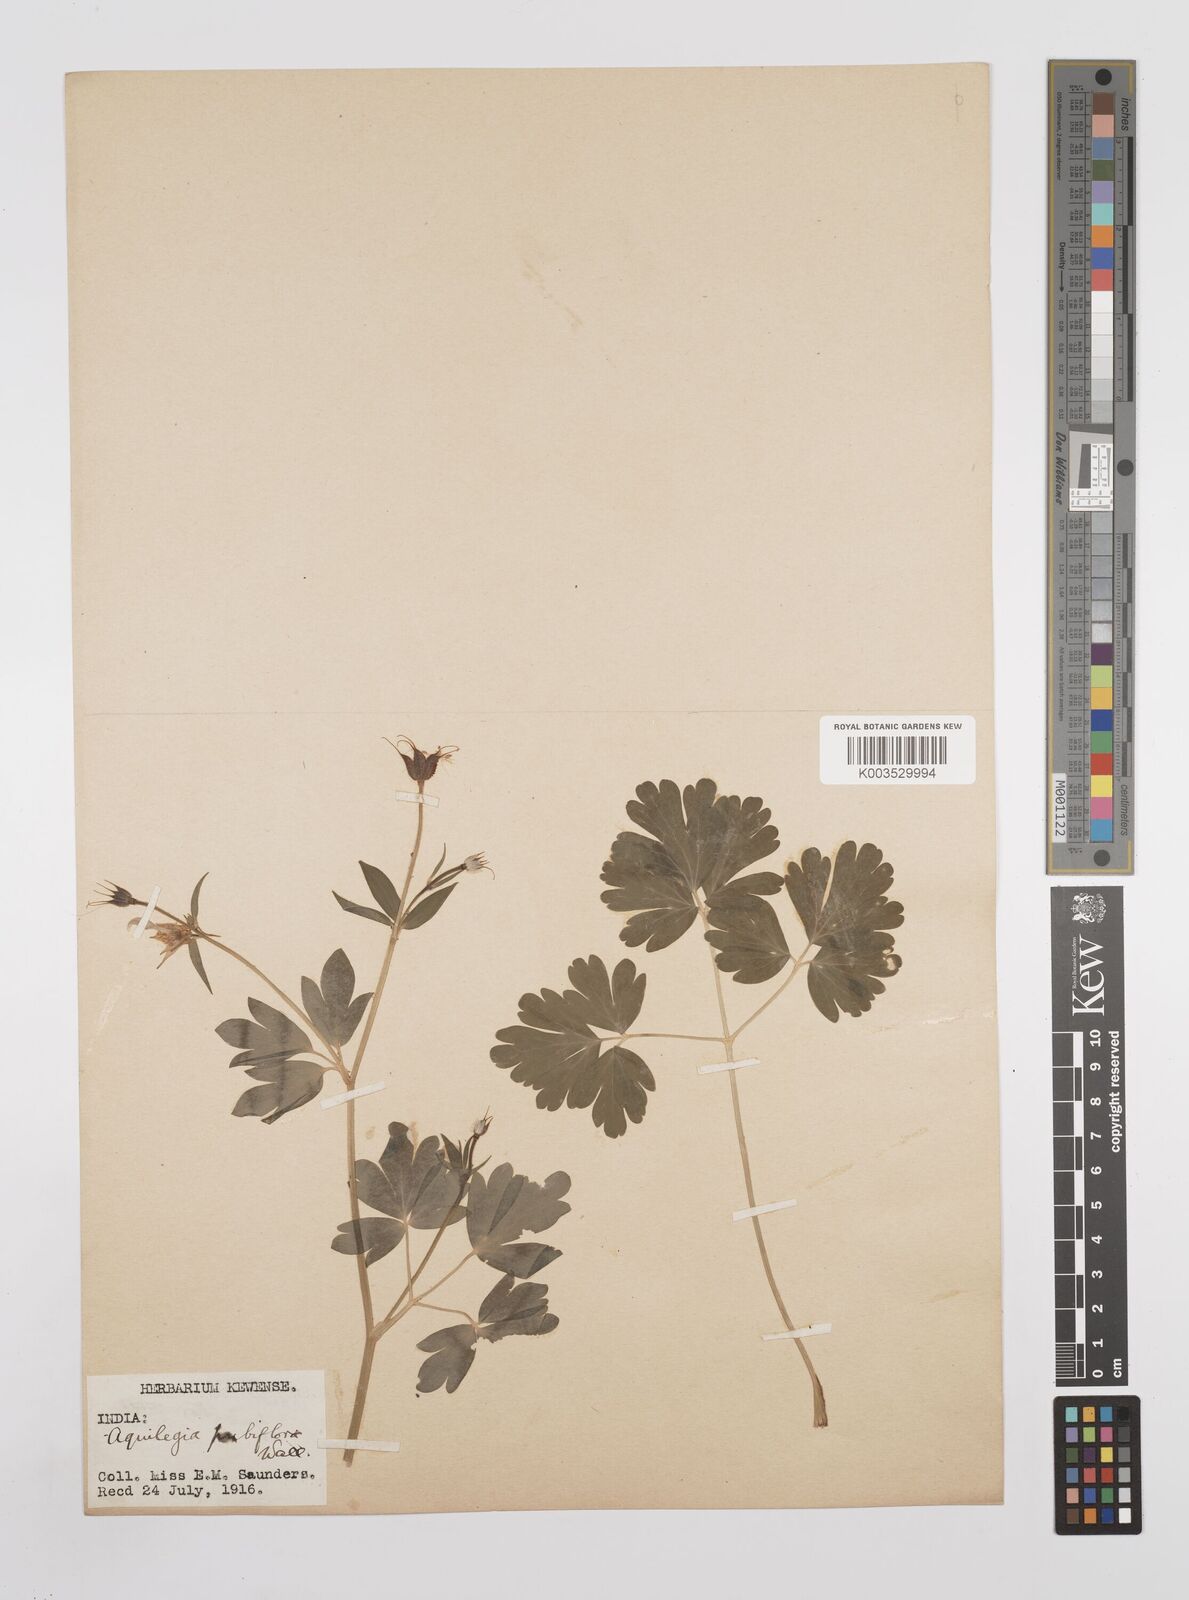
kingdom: Plantae
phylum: Tracheophyta
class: Magnoliopsida
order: Ranunculales
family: Ranunculaceae
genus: Aquilegia
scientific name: Aquilegia pubiflora
